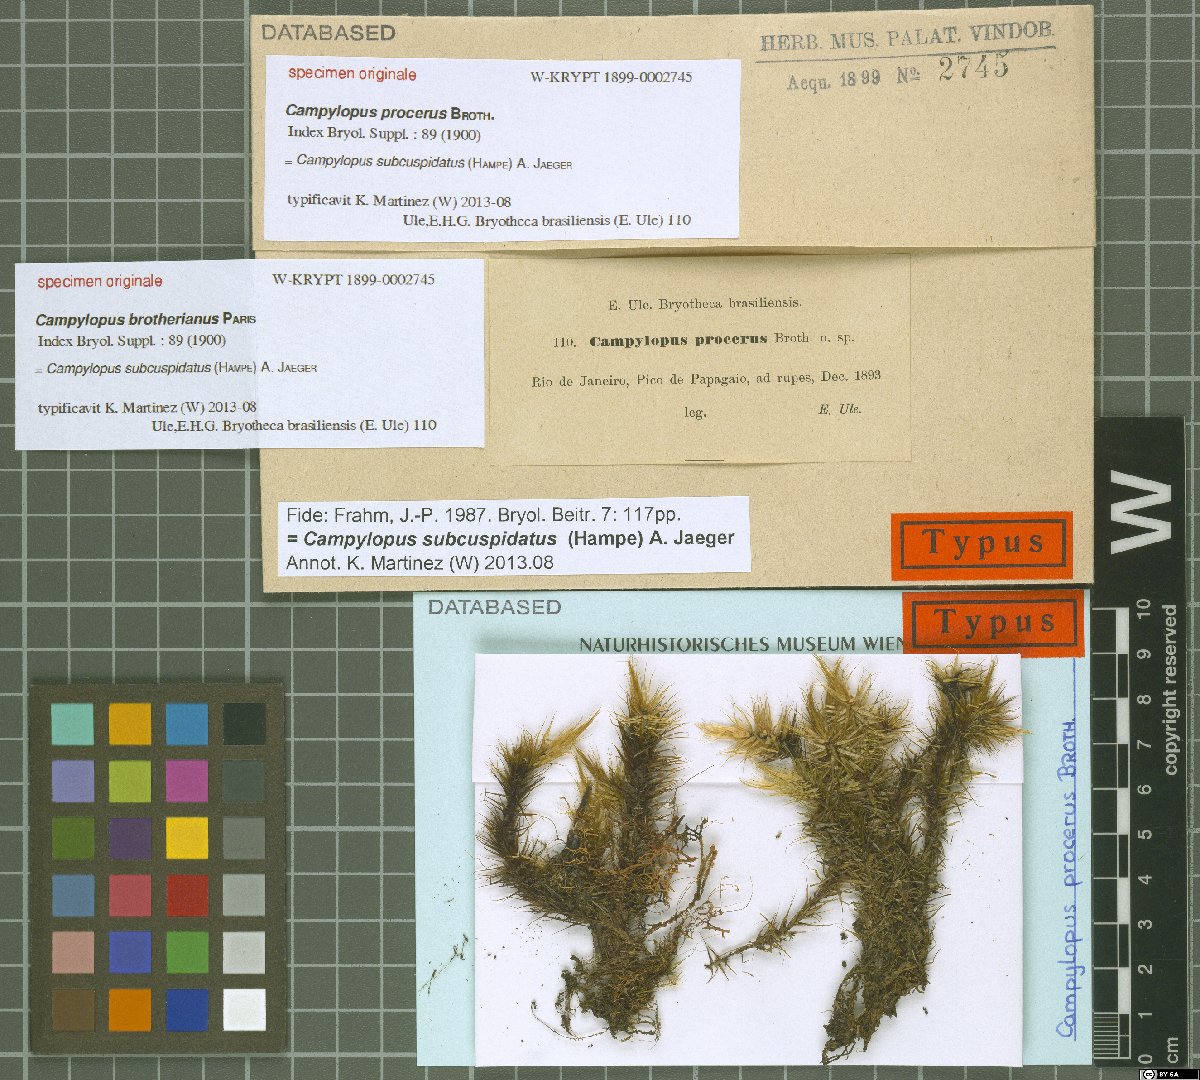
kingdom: Protozoa
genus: Campylopus
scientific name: Campylopus
